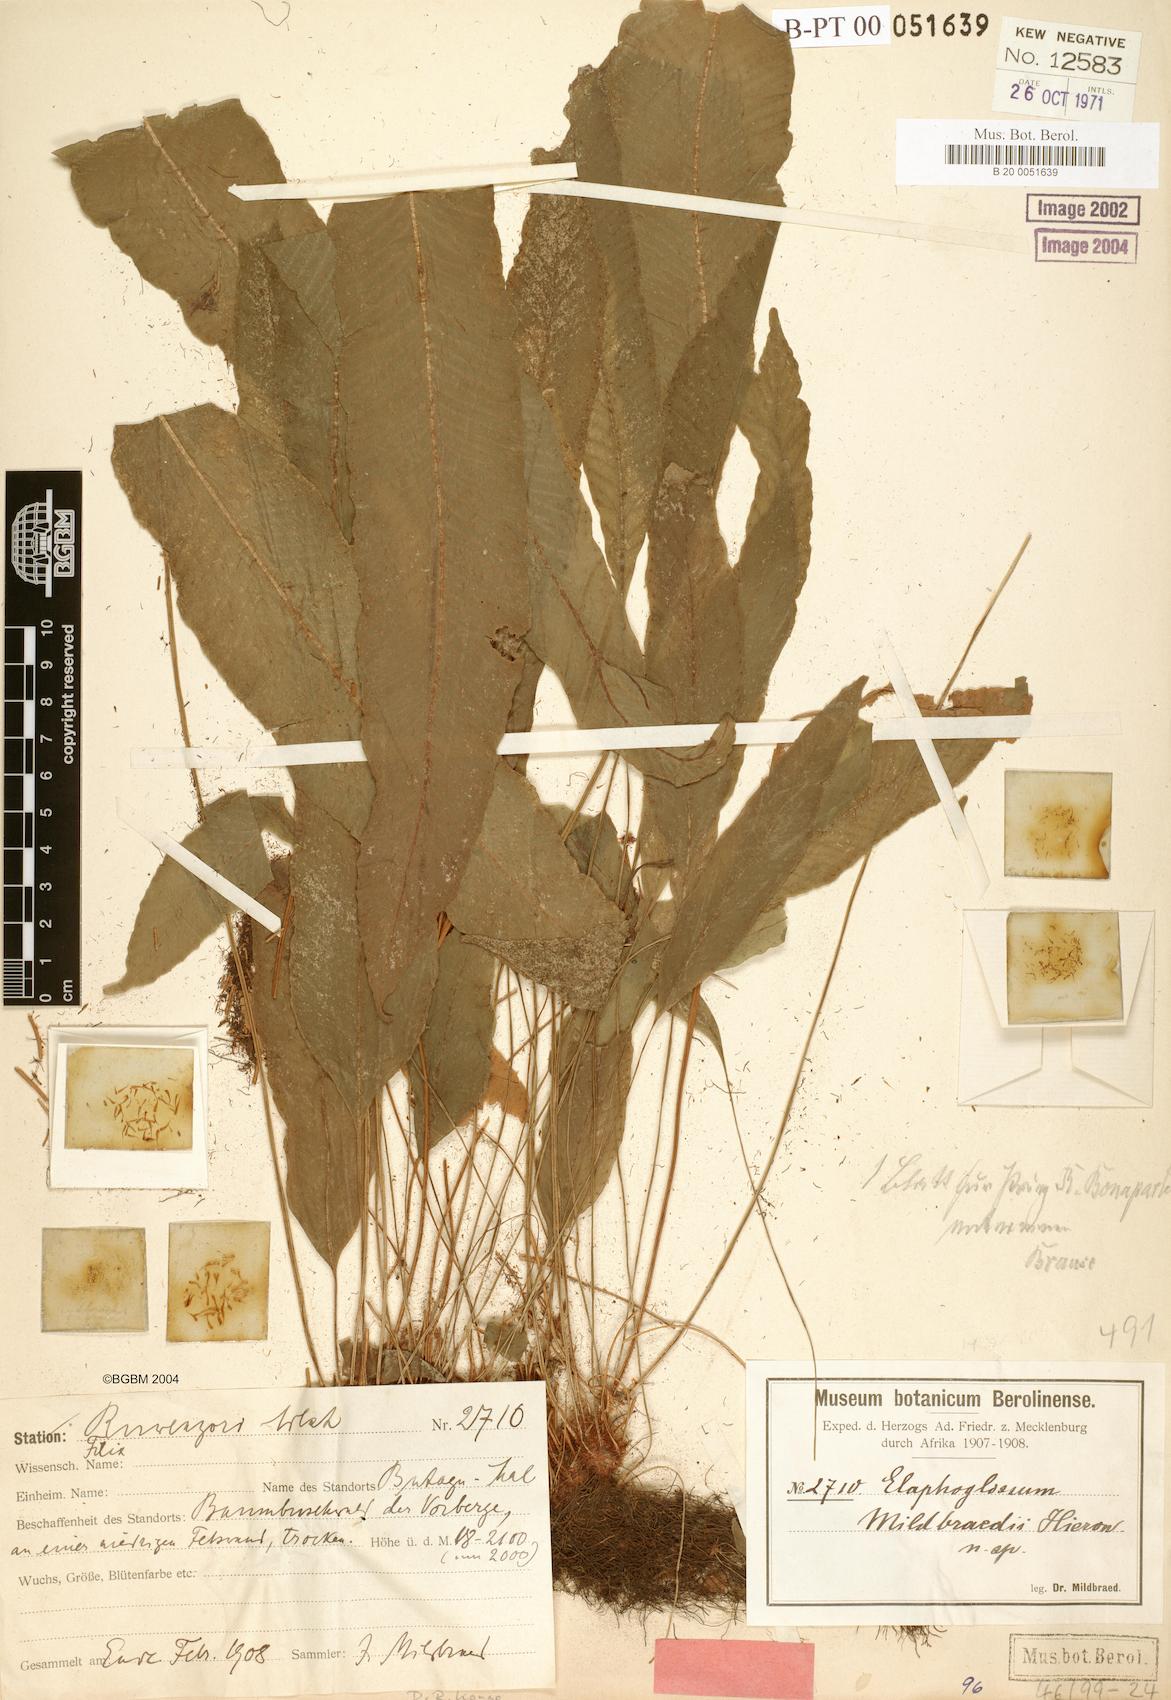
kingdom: Plantae
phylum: Tracheophyta
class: Polypodiopsida
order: Polypodiales
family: Dryopteridaceae
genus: Elaphoglossum
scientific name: Elaphoglossum mildbraedii
